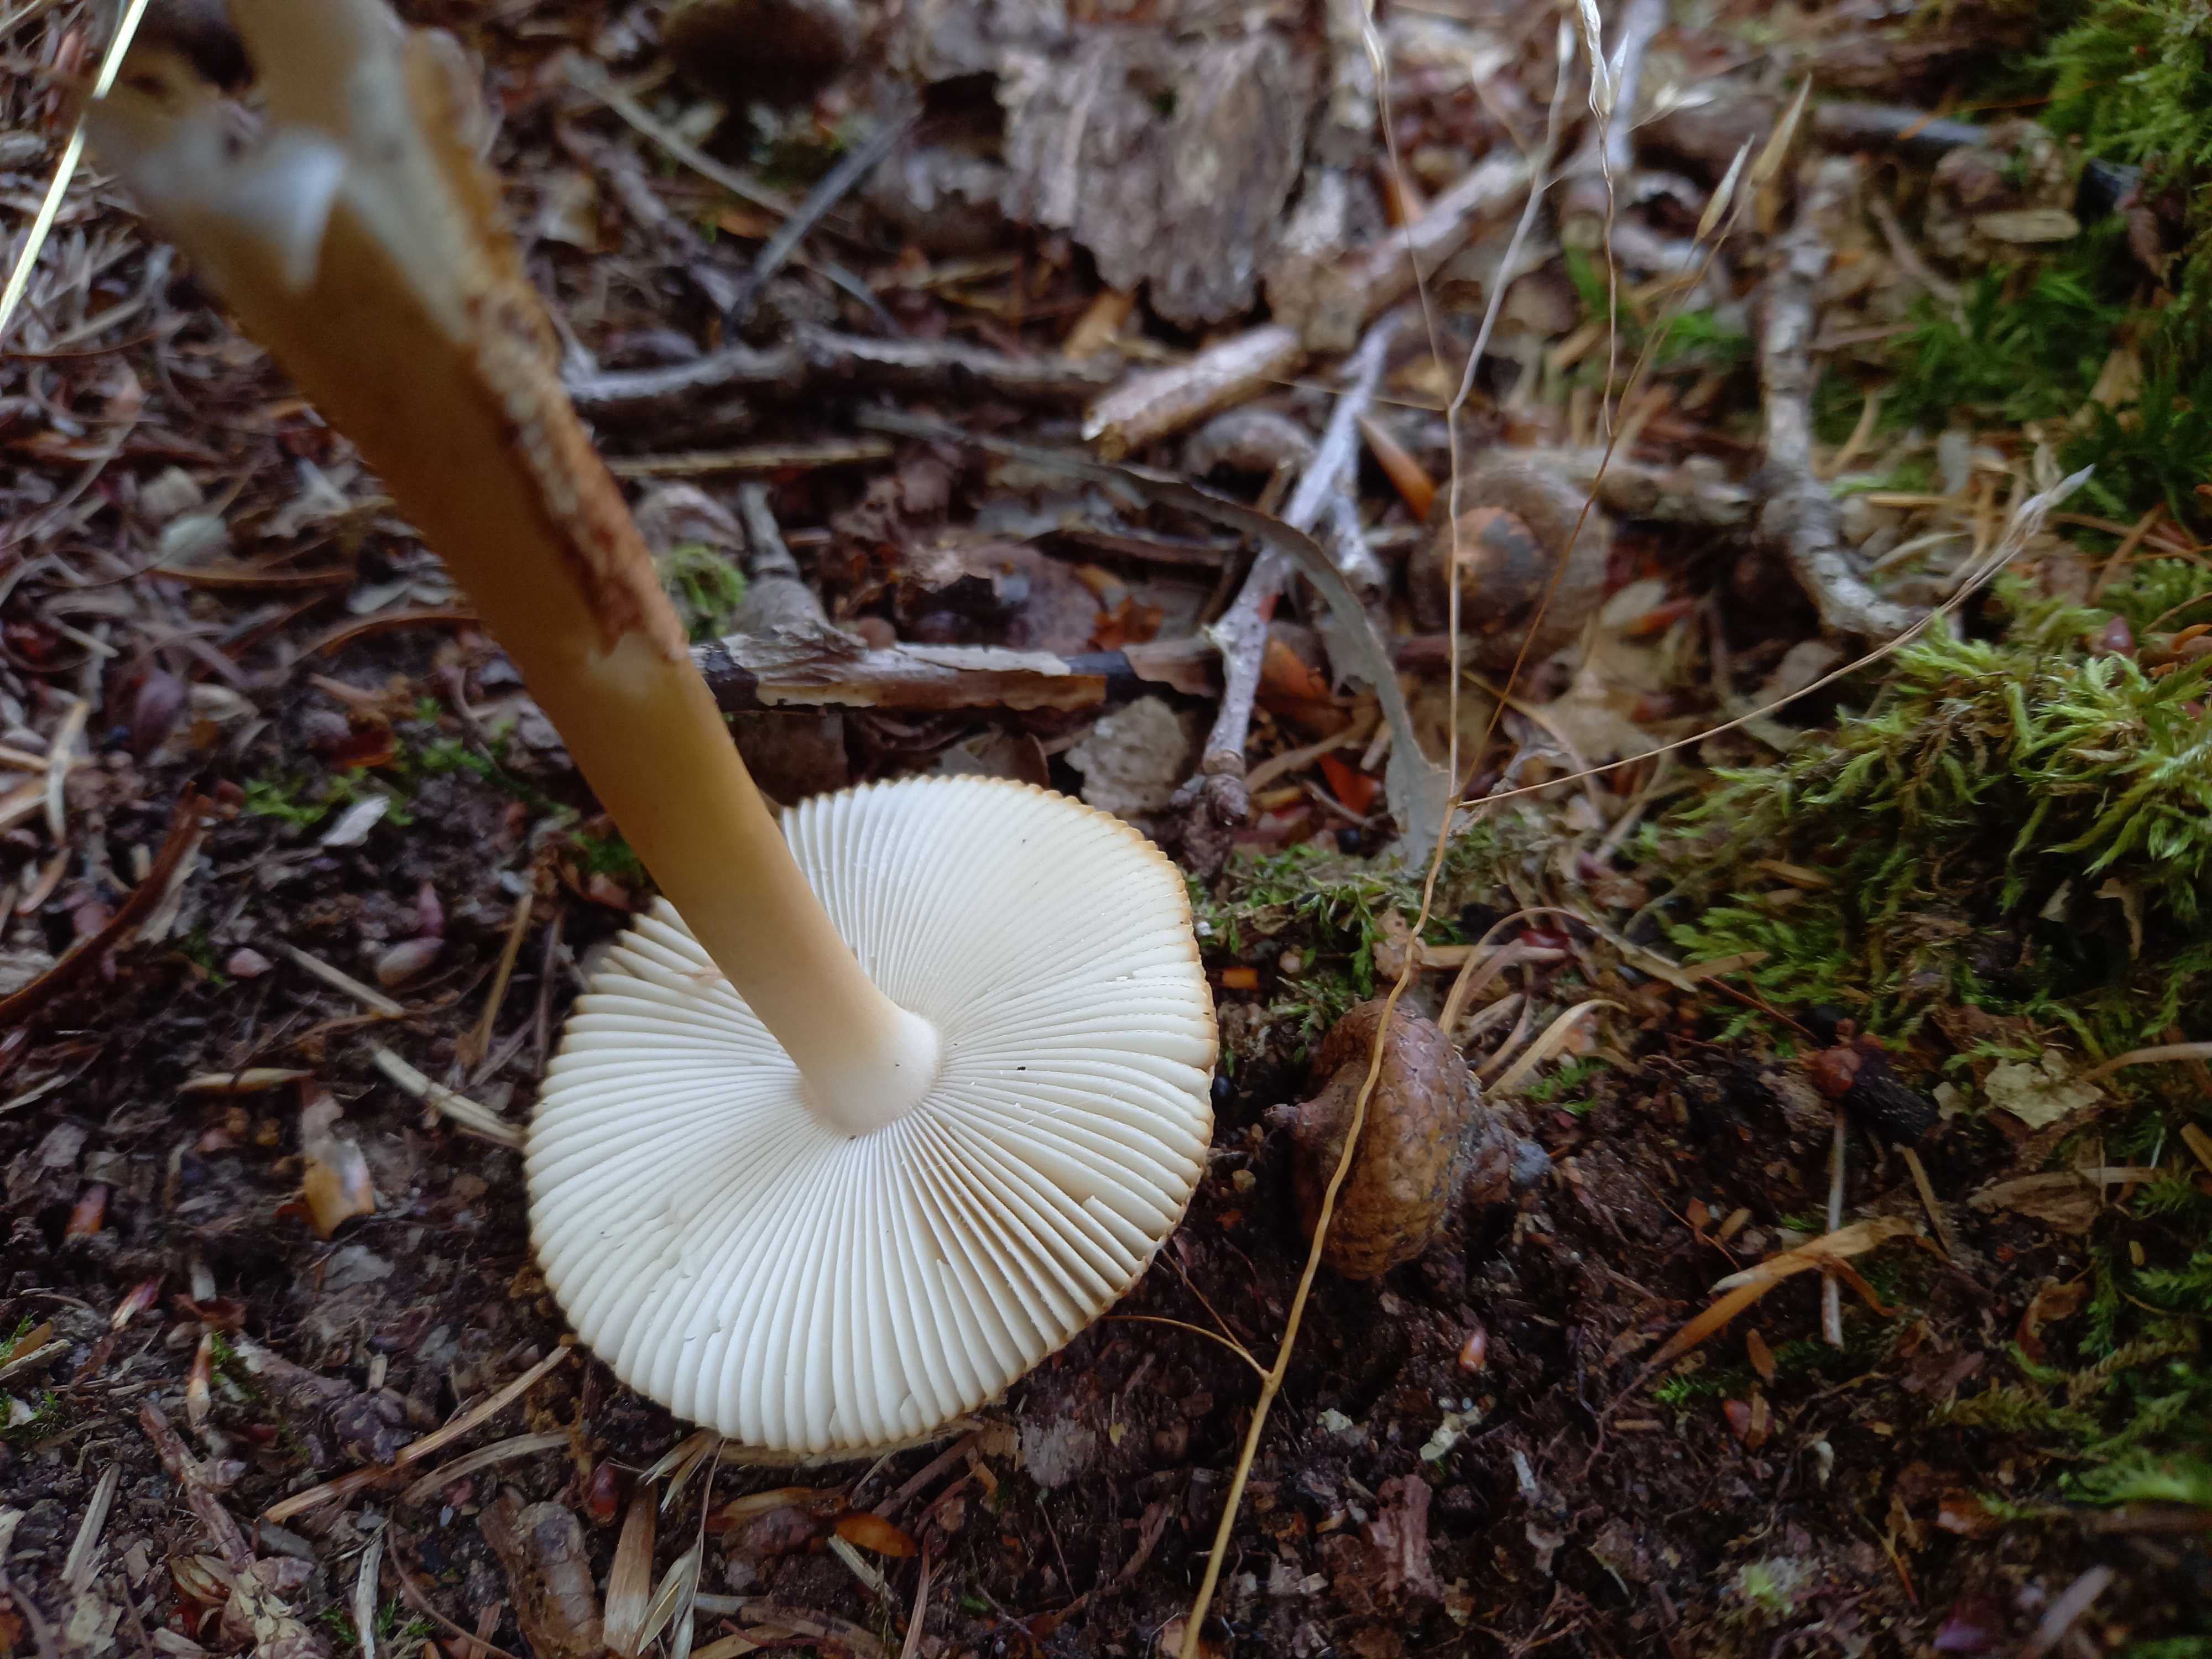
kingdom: Fungi
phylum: Basidiomycota
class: Agaricomycetes
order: Agaricales
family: Amanitaceae
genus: Amanita
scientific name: Amanita fulva
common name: brun kam-fluesvamp
